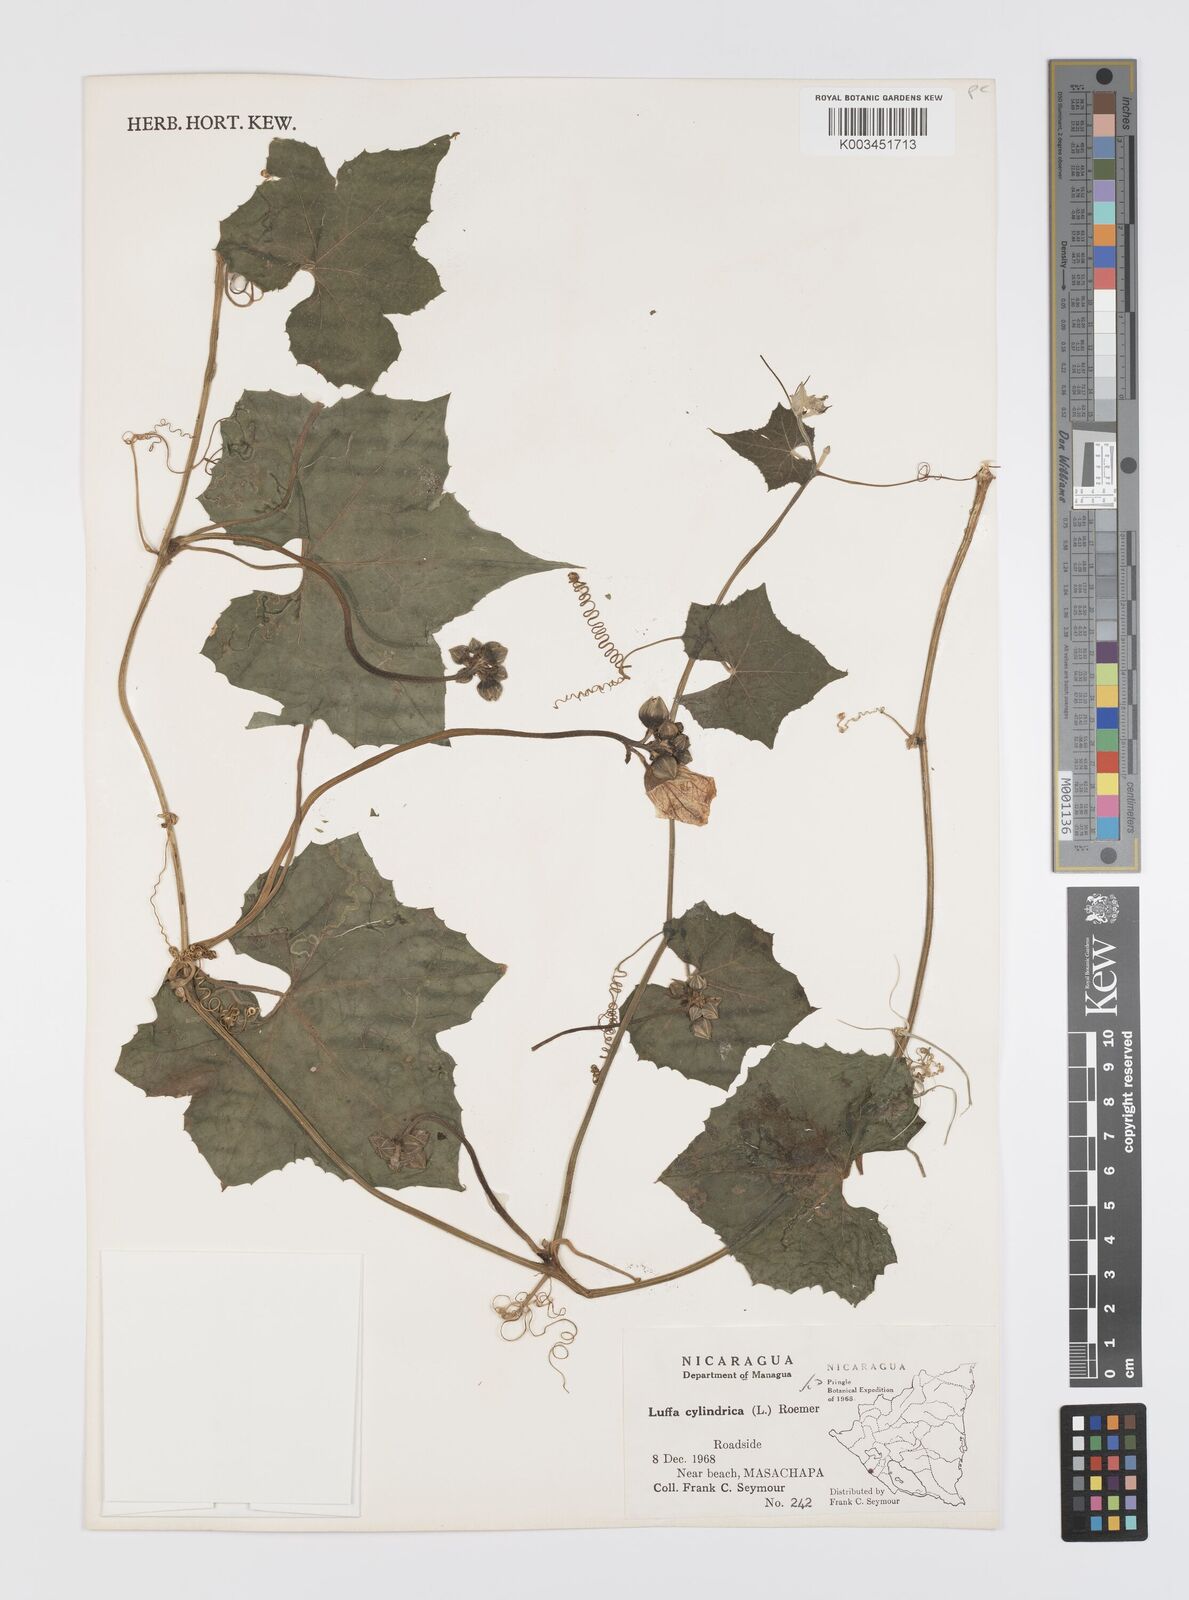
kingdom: Plantae
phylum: Tracheophyta
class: Magnoliopsida
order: Cucurbitales
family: Cucurbitaceae
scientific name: Cucurbitaceae
